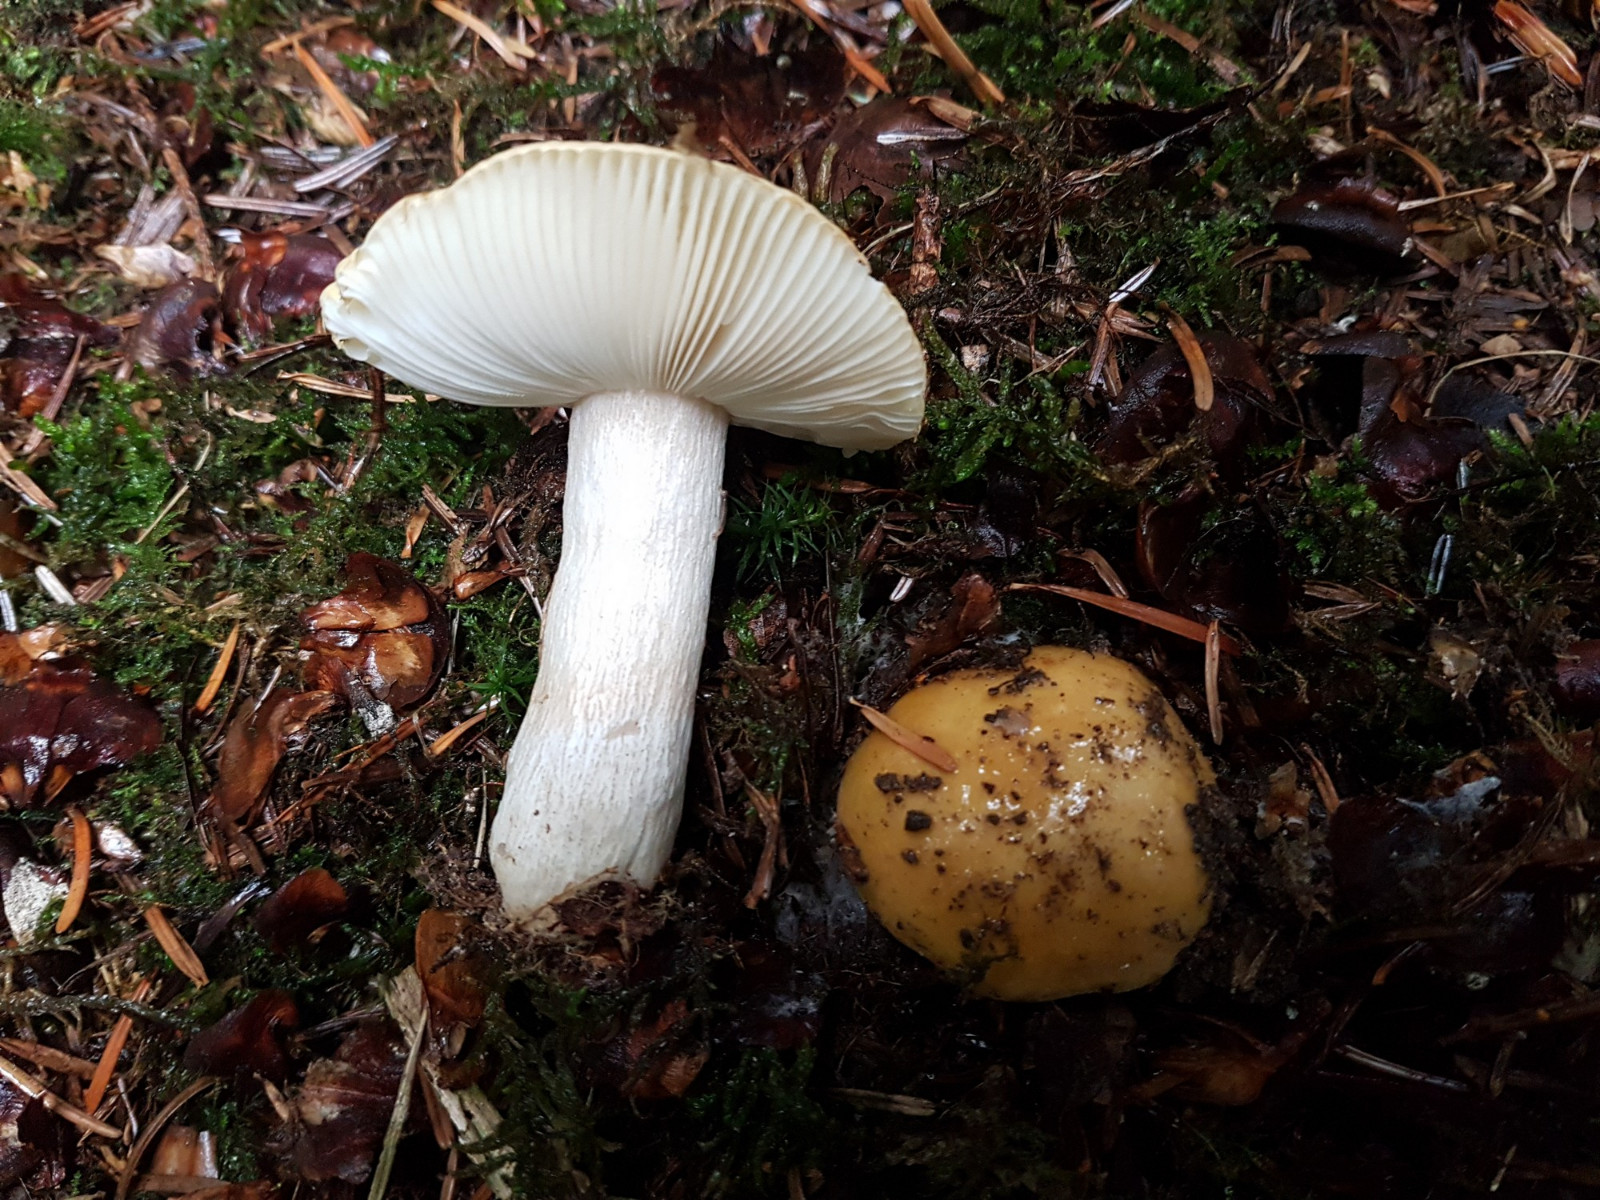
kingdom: Fungi
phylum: Basidiomycota
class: Agaricomycetes
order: Russulales
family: Russulaceae
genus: Russula
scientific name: Russula ochroleuca
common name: okkergul skørhat
